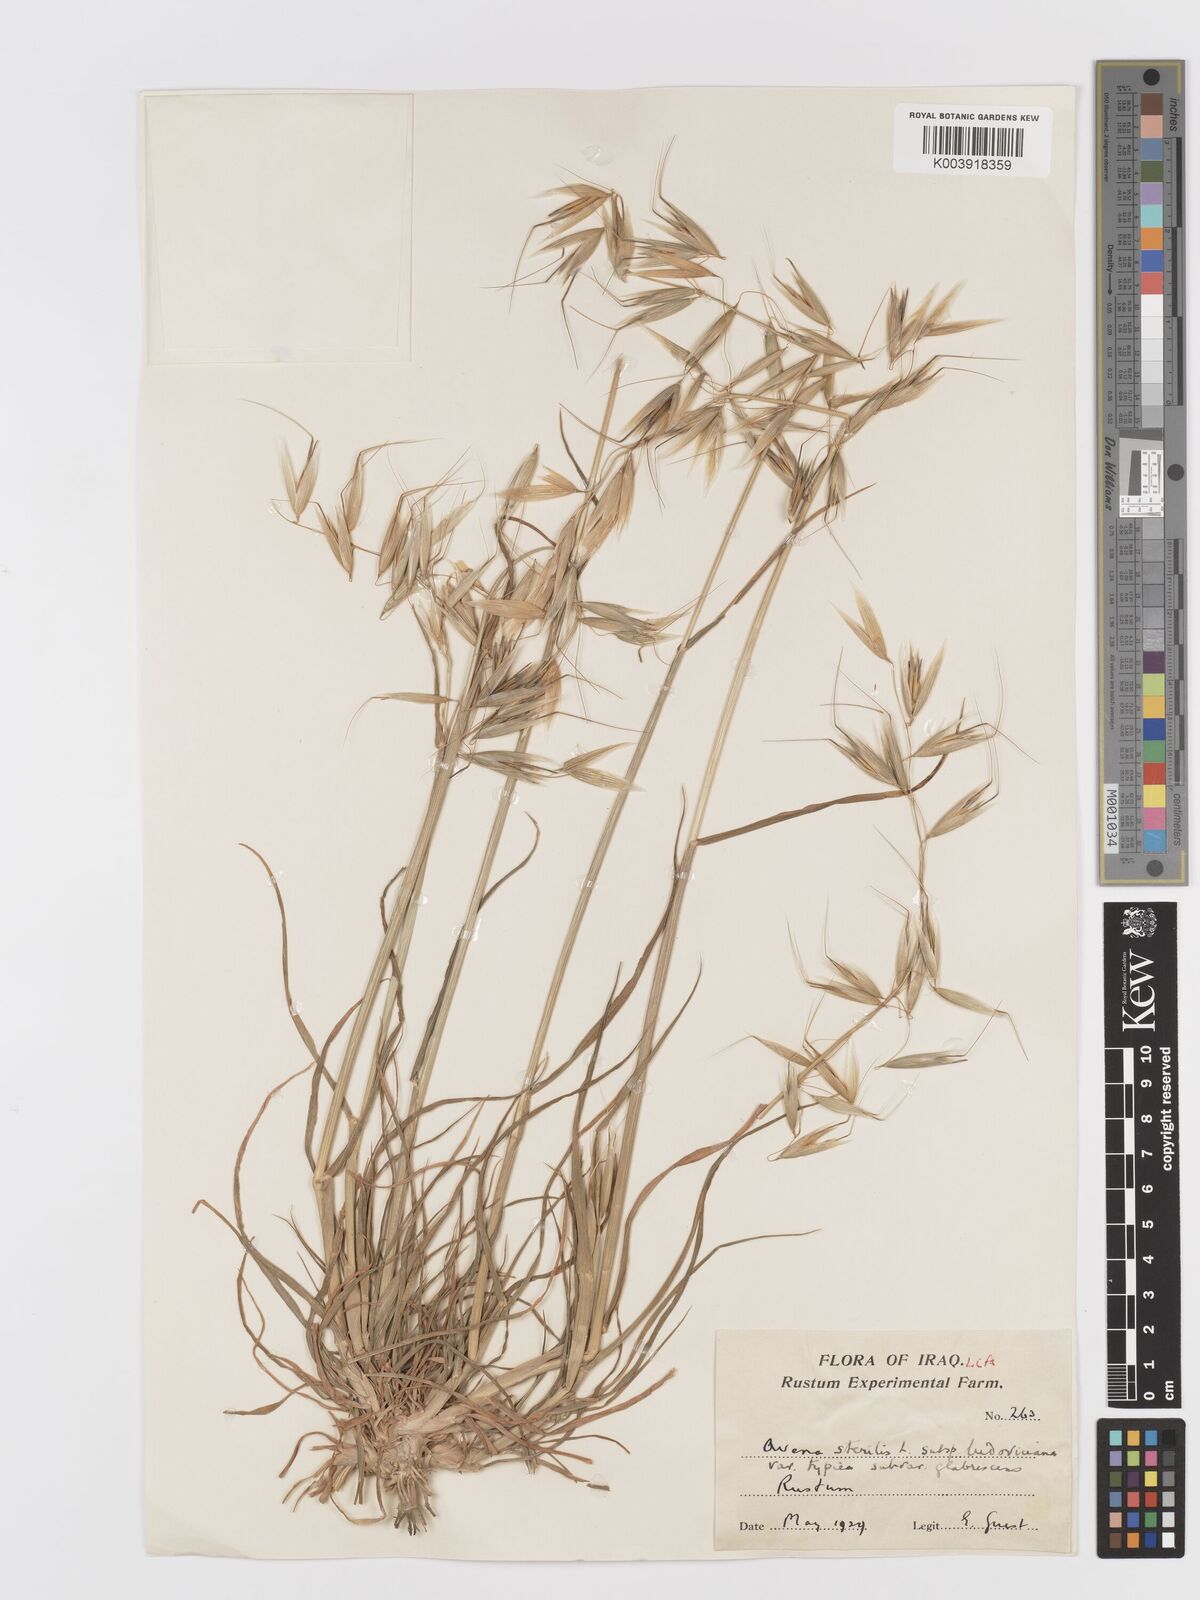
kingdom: Plantae
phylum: Tracheophyta
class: Liliopsida
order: Poales
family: Poaceae
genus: Avena
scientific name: Avena sterilis
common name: Animated oat
